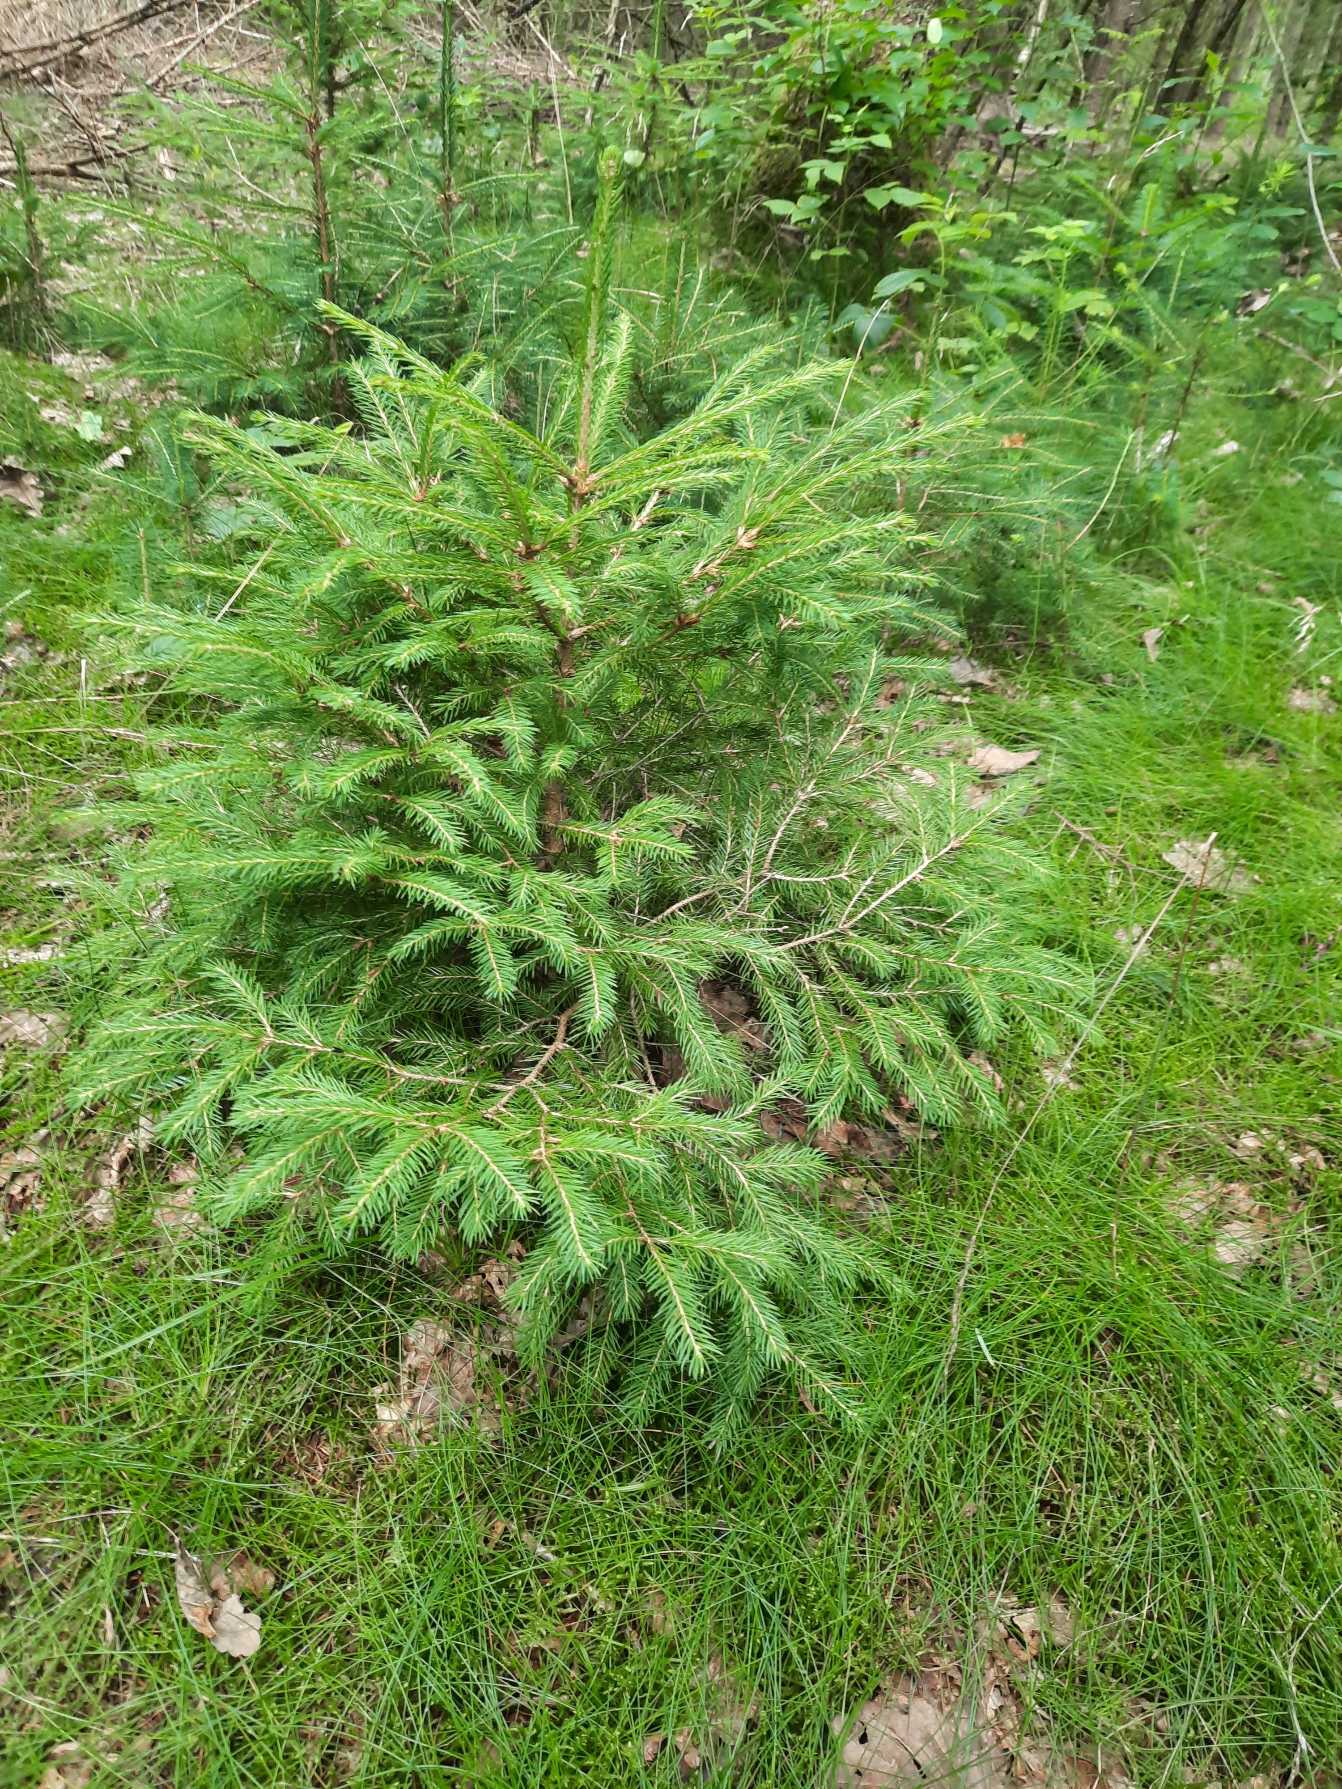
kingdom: Plantae
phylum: Tracheophyta
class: Pinopsida
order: Pinales
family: Pinaceae
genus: Picea
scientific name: Picea abies
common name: Rød-gran
